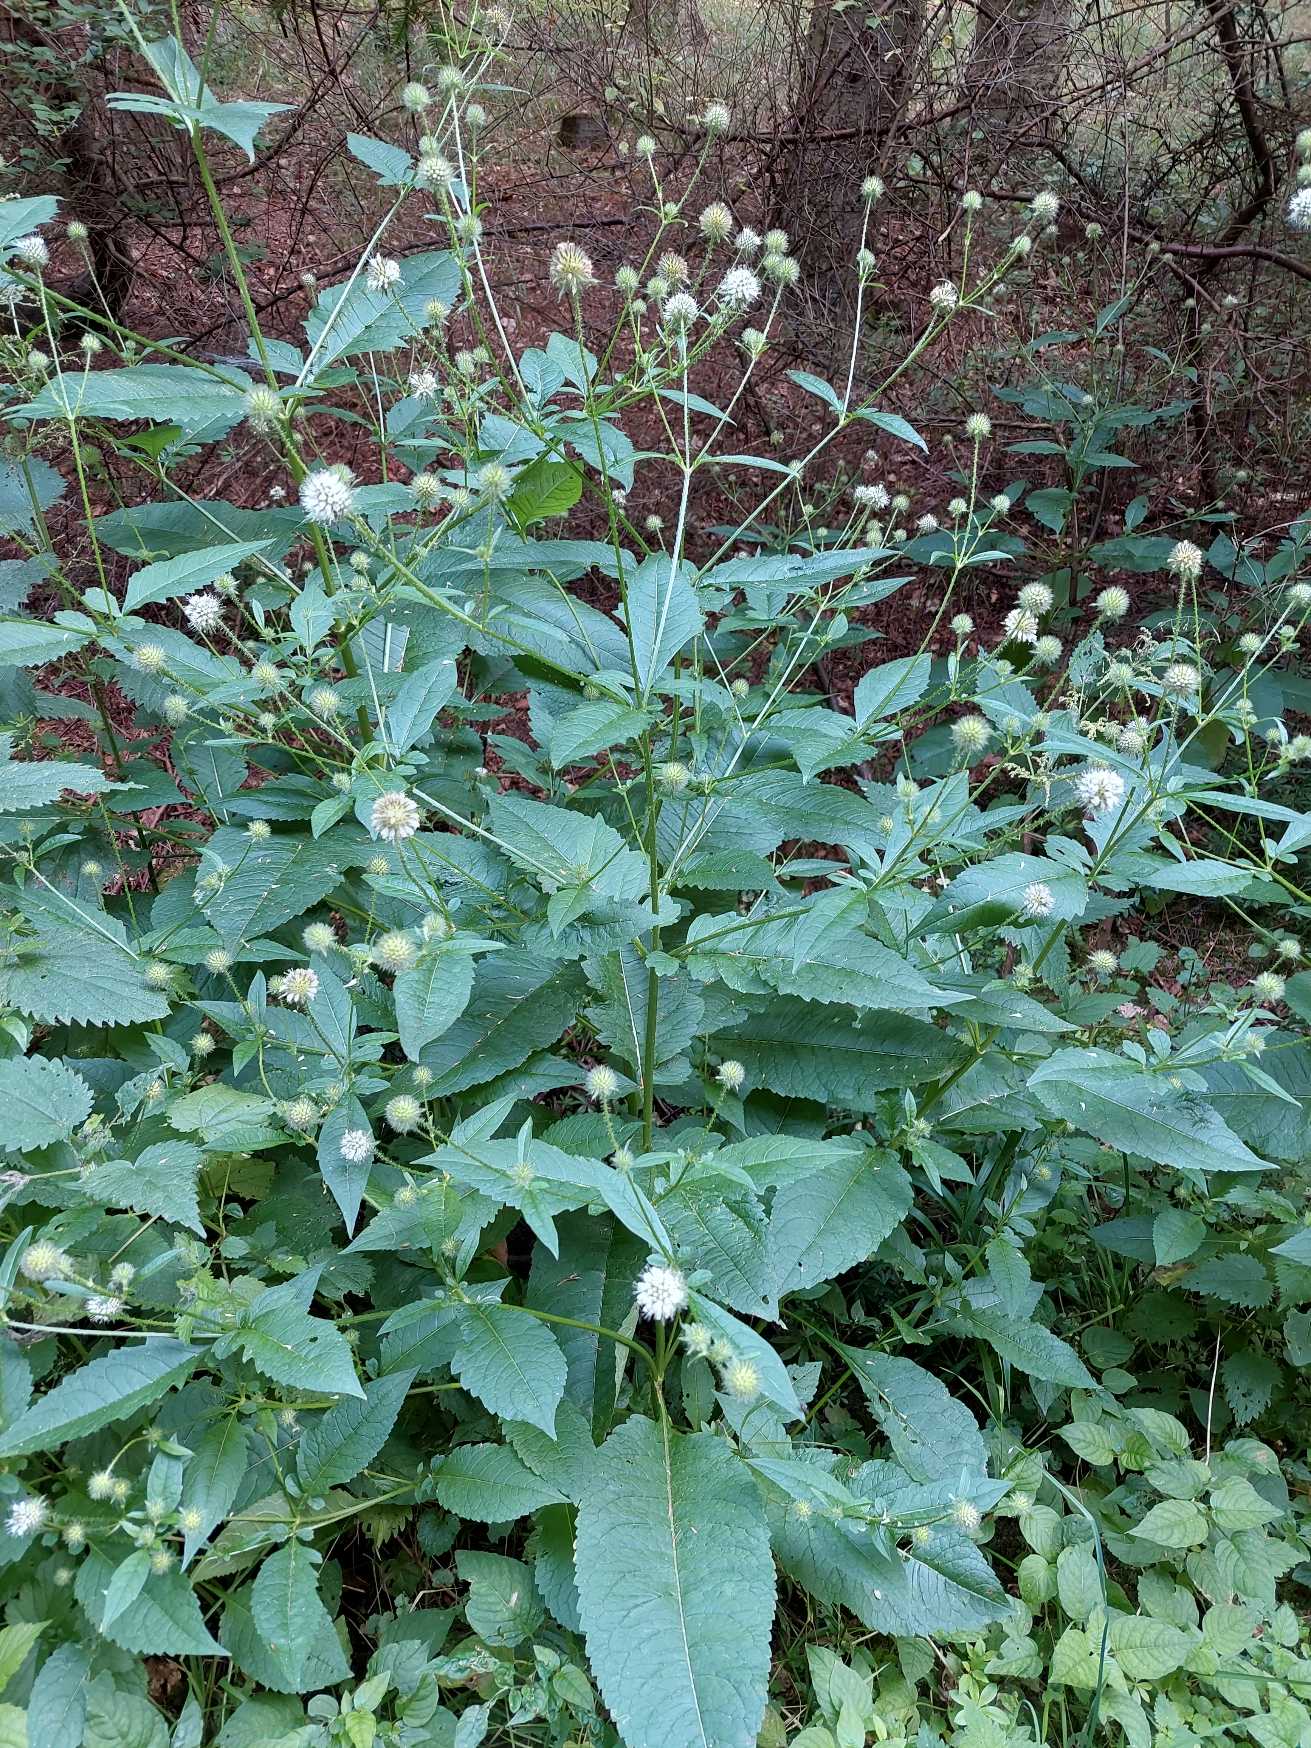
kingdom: Plantae
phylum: Tracheophyta
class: Magnoliopsida
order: Dipsacales
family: Caprifoliaceae
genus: Dipsacus
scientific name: Dipsacus pilosus
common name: Håret kartebolle
